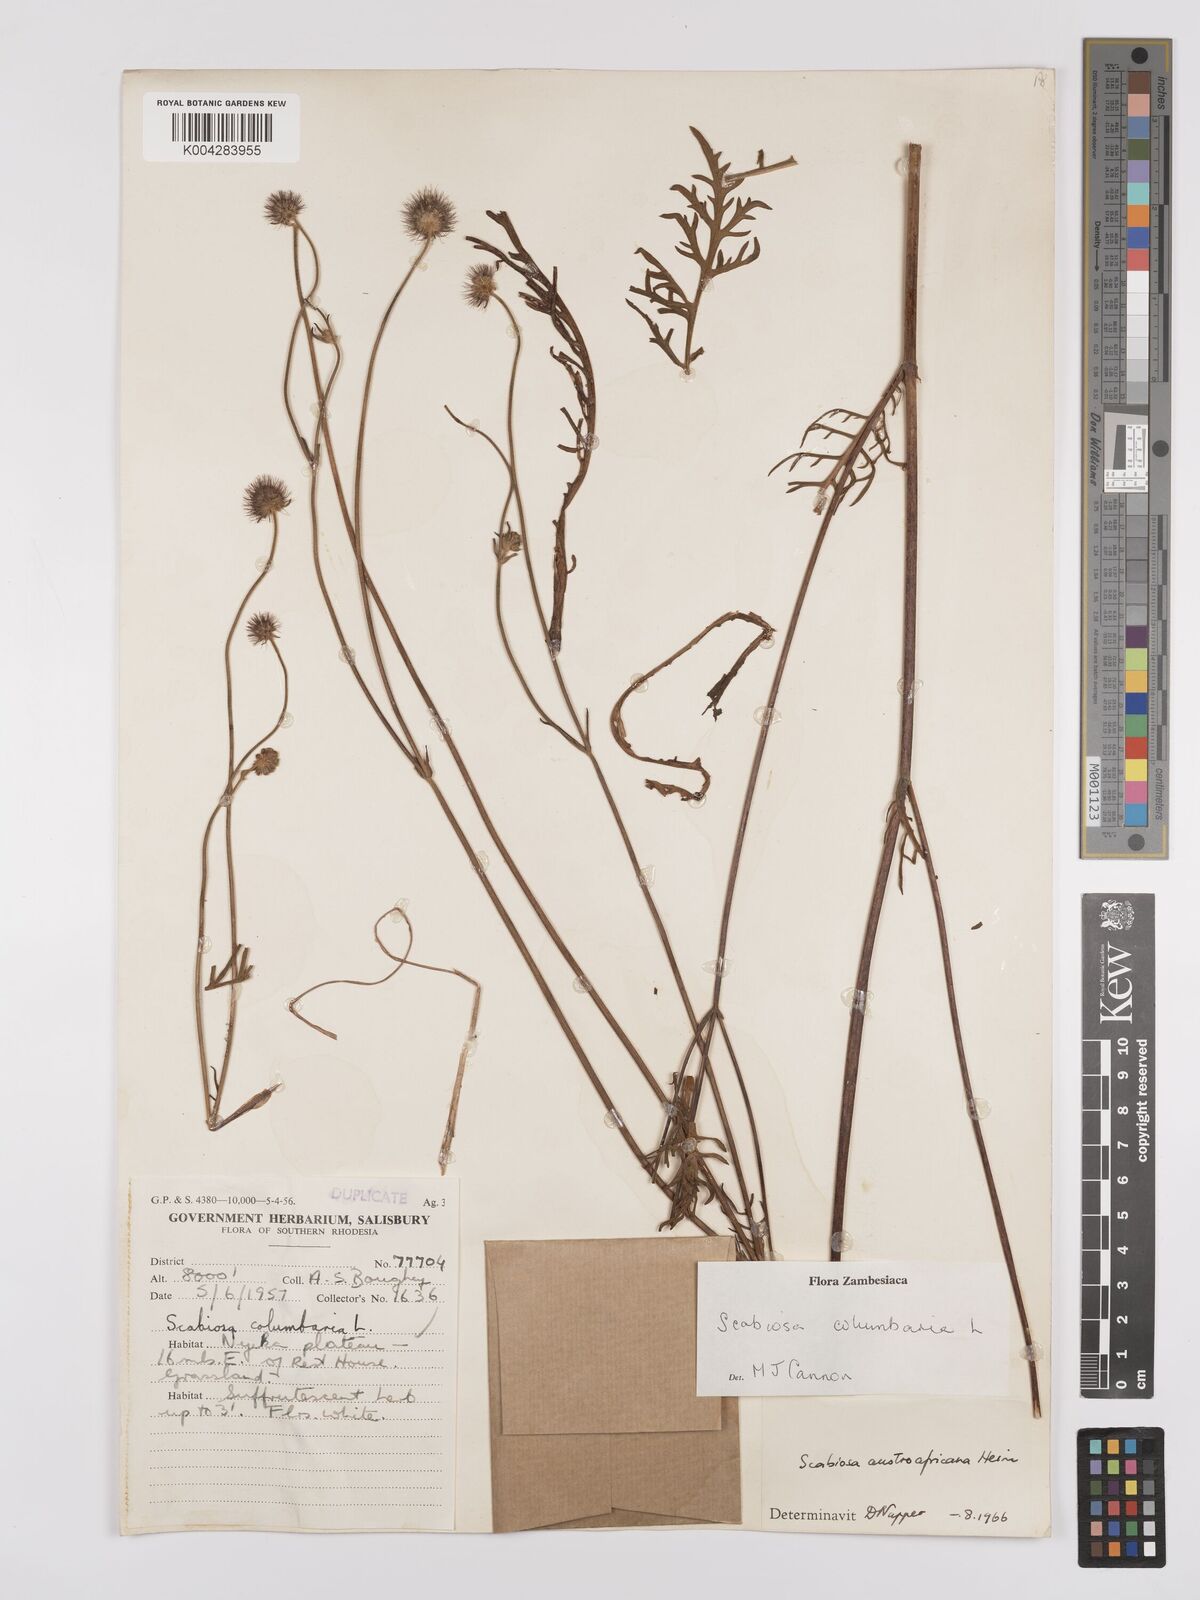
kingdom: Plantae
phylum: Tracheophyta
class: Magnoliopsida
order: Dipsacales
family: Caprifoliaceae
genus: Scabiosa
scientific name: Scabiosa austroafricana
